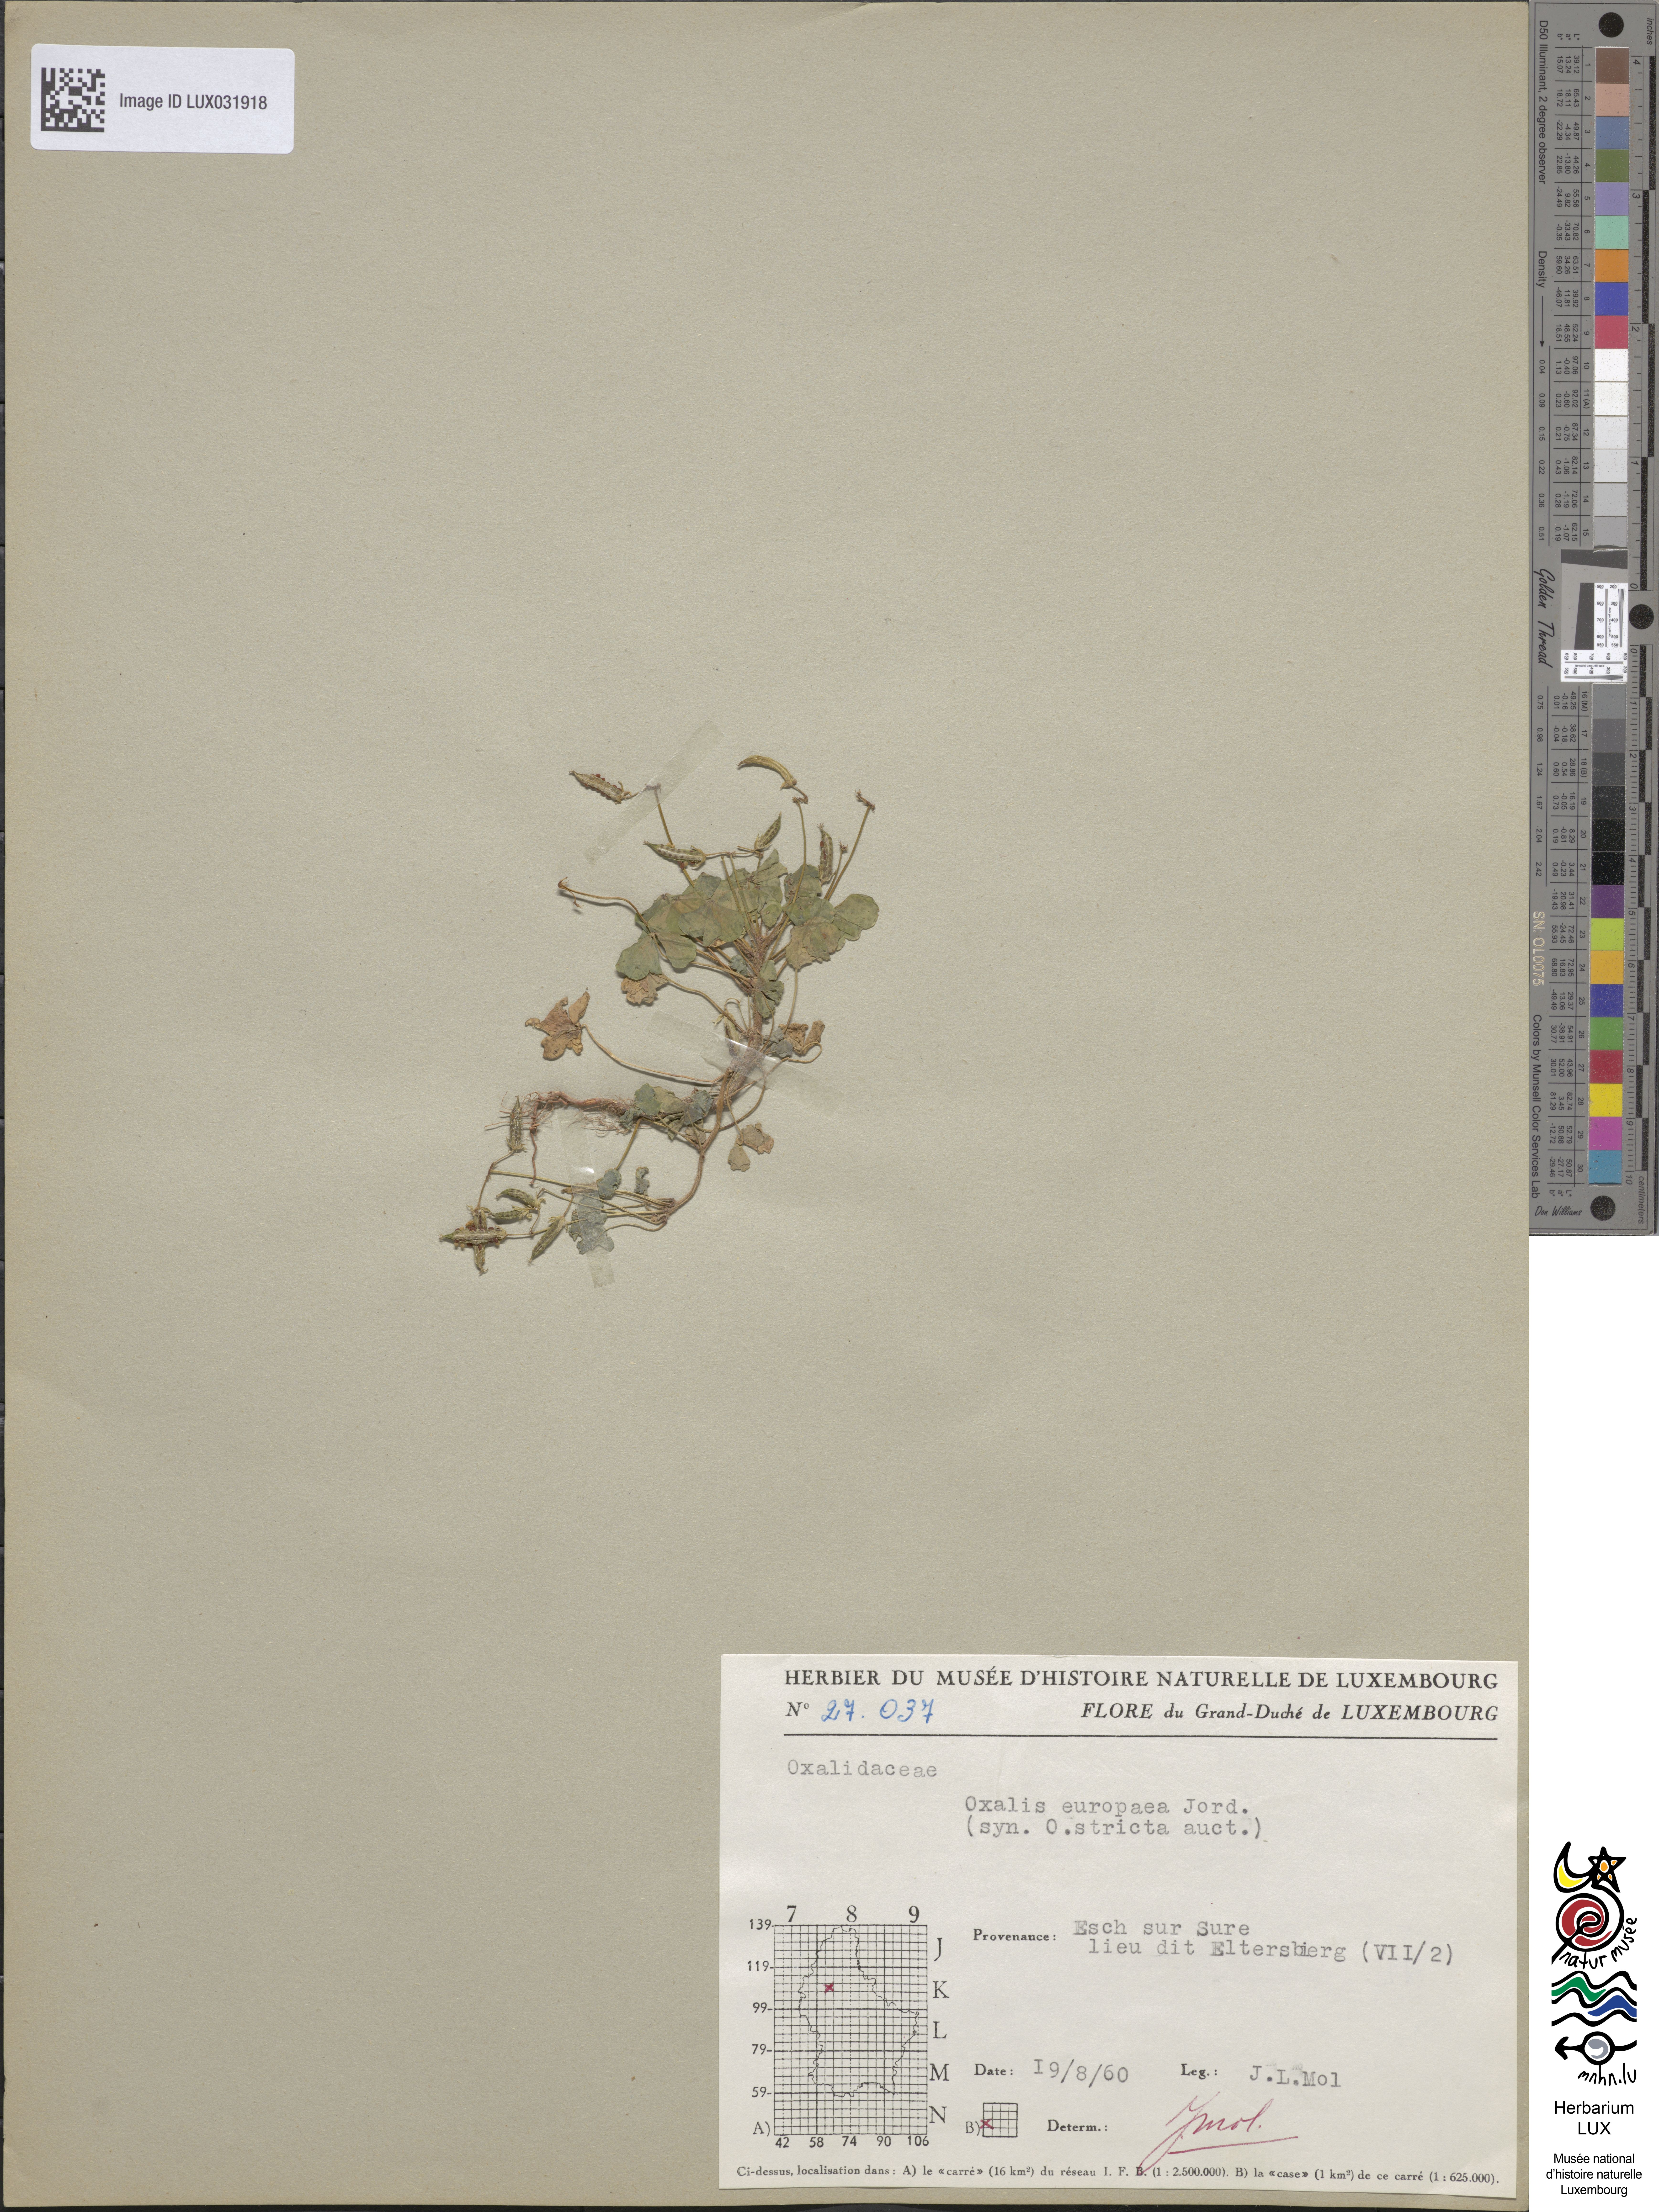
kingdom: Plantae
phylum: Tracheophyta
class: Magnoliopsida
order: Oxalidales
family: Oxalidaceae
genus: Oxalis
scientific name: Oxalis stricta
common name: Upright yellow-sorrel
